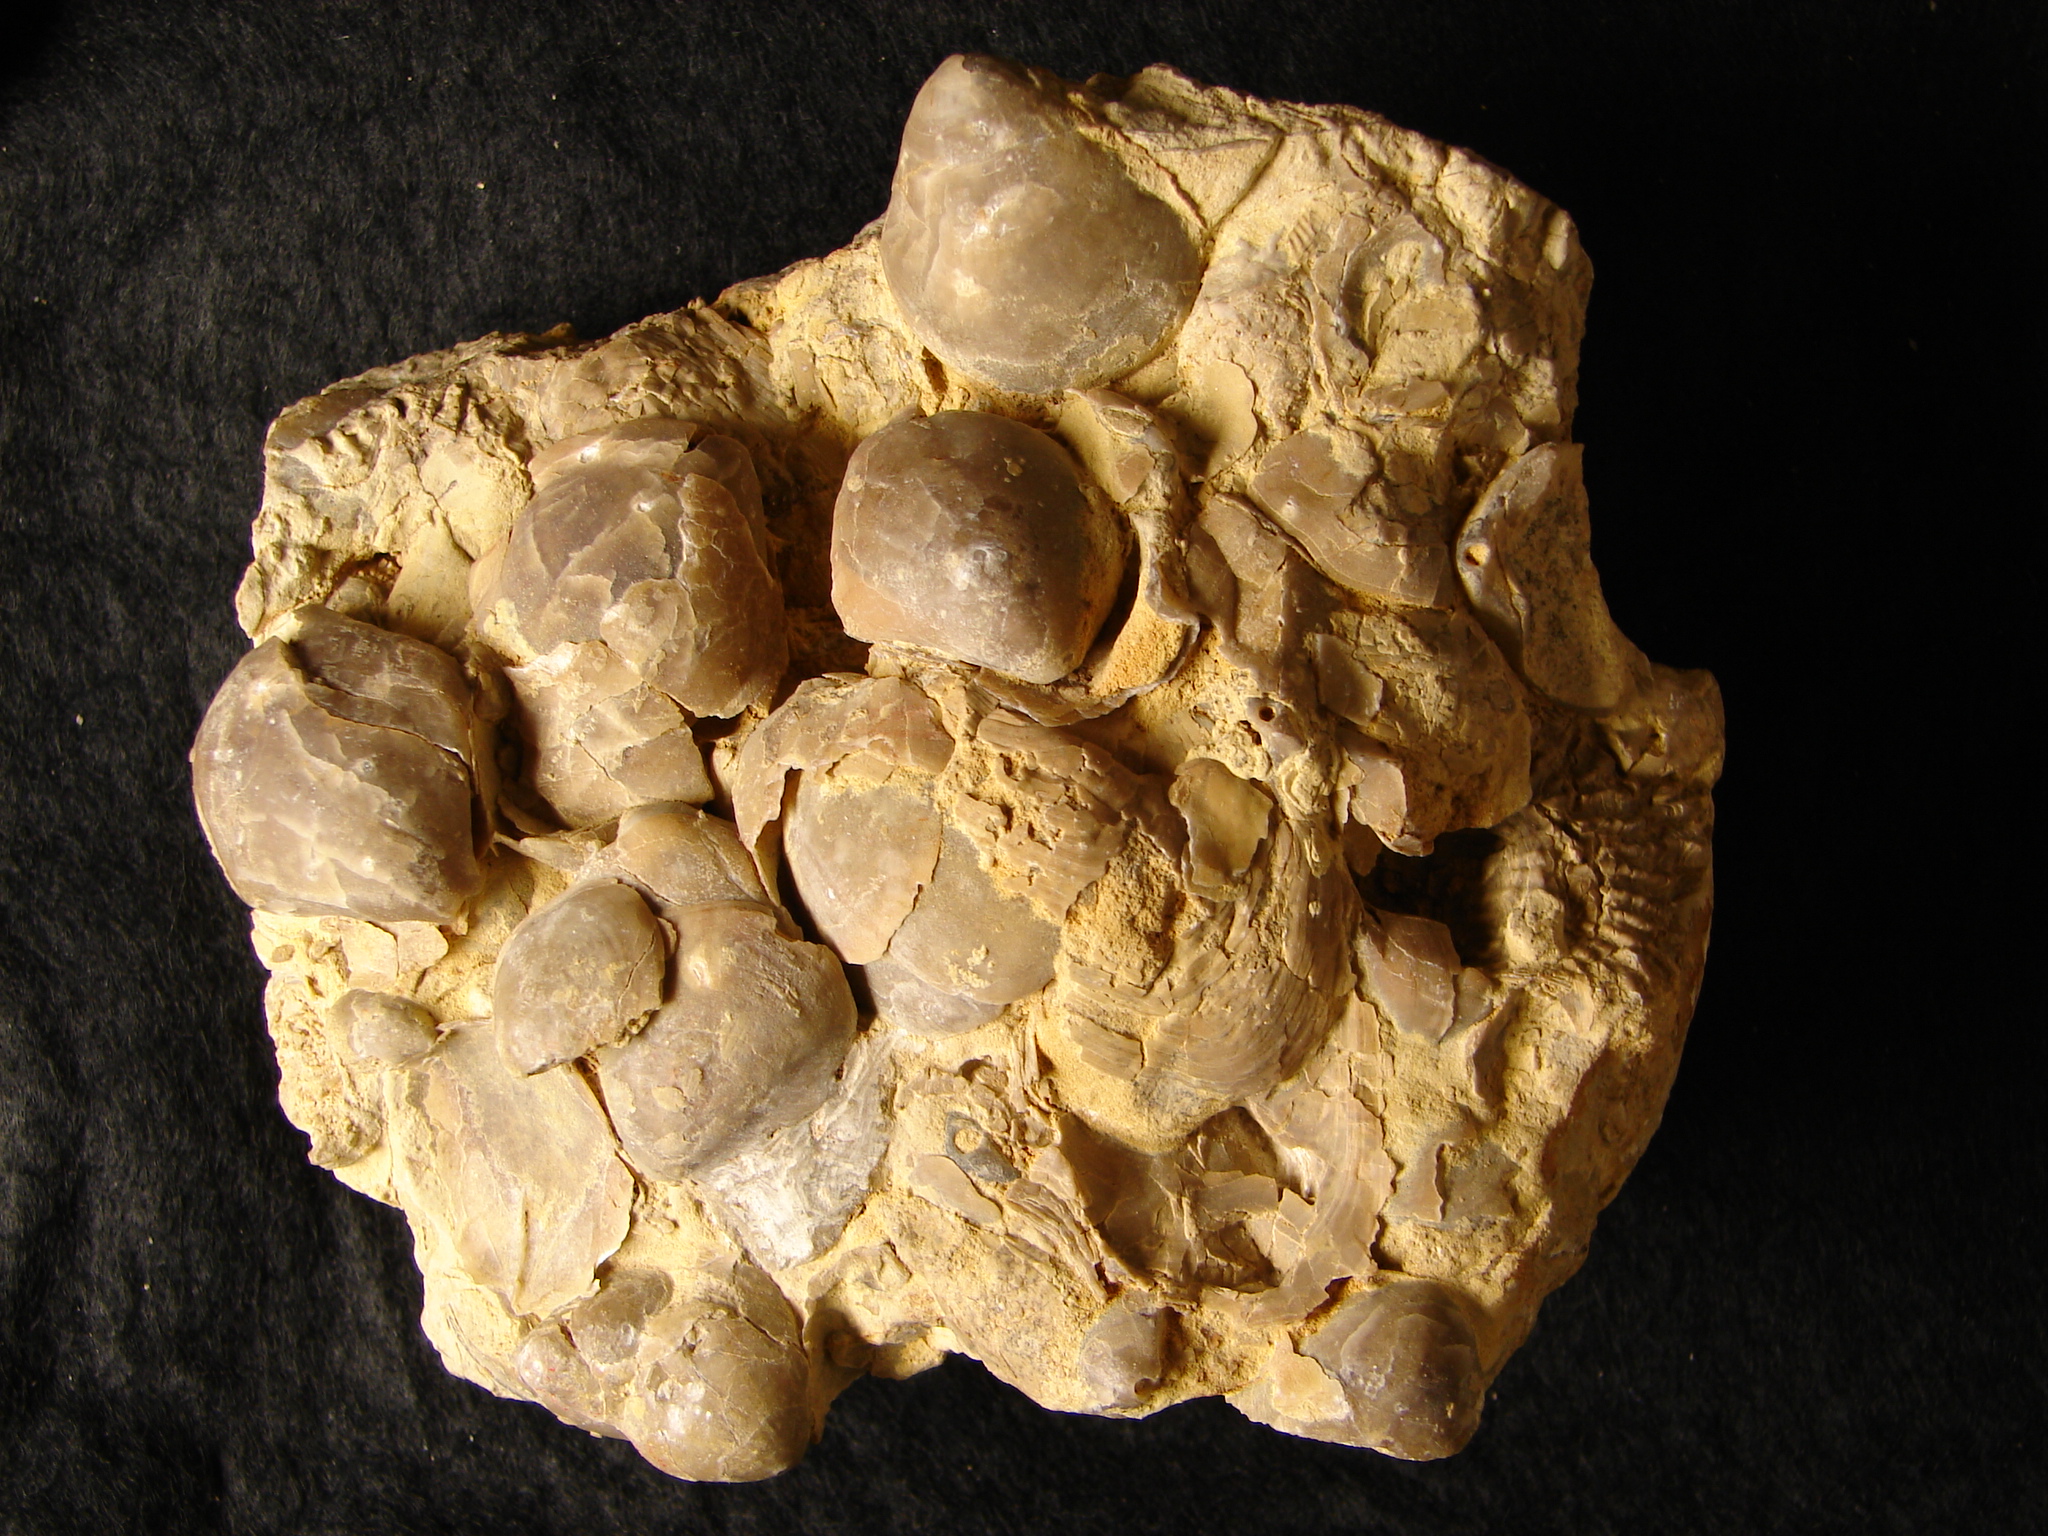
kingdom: Animalia
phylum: Brachiopoda
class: Rhynchonellata
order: Terebratulida
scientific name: Terebratulida
